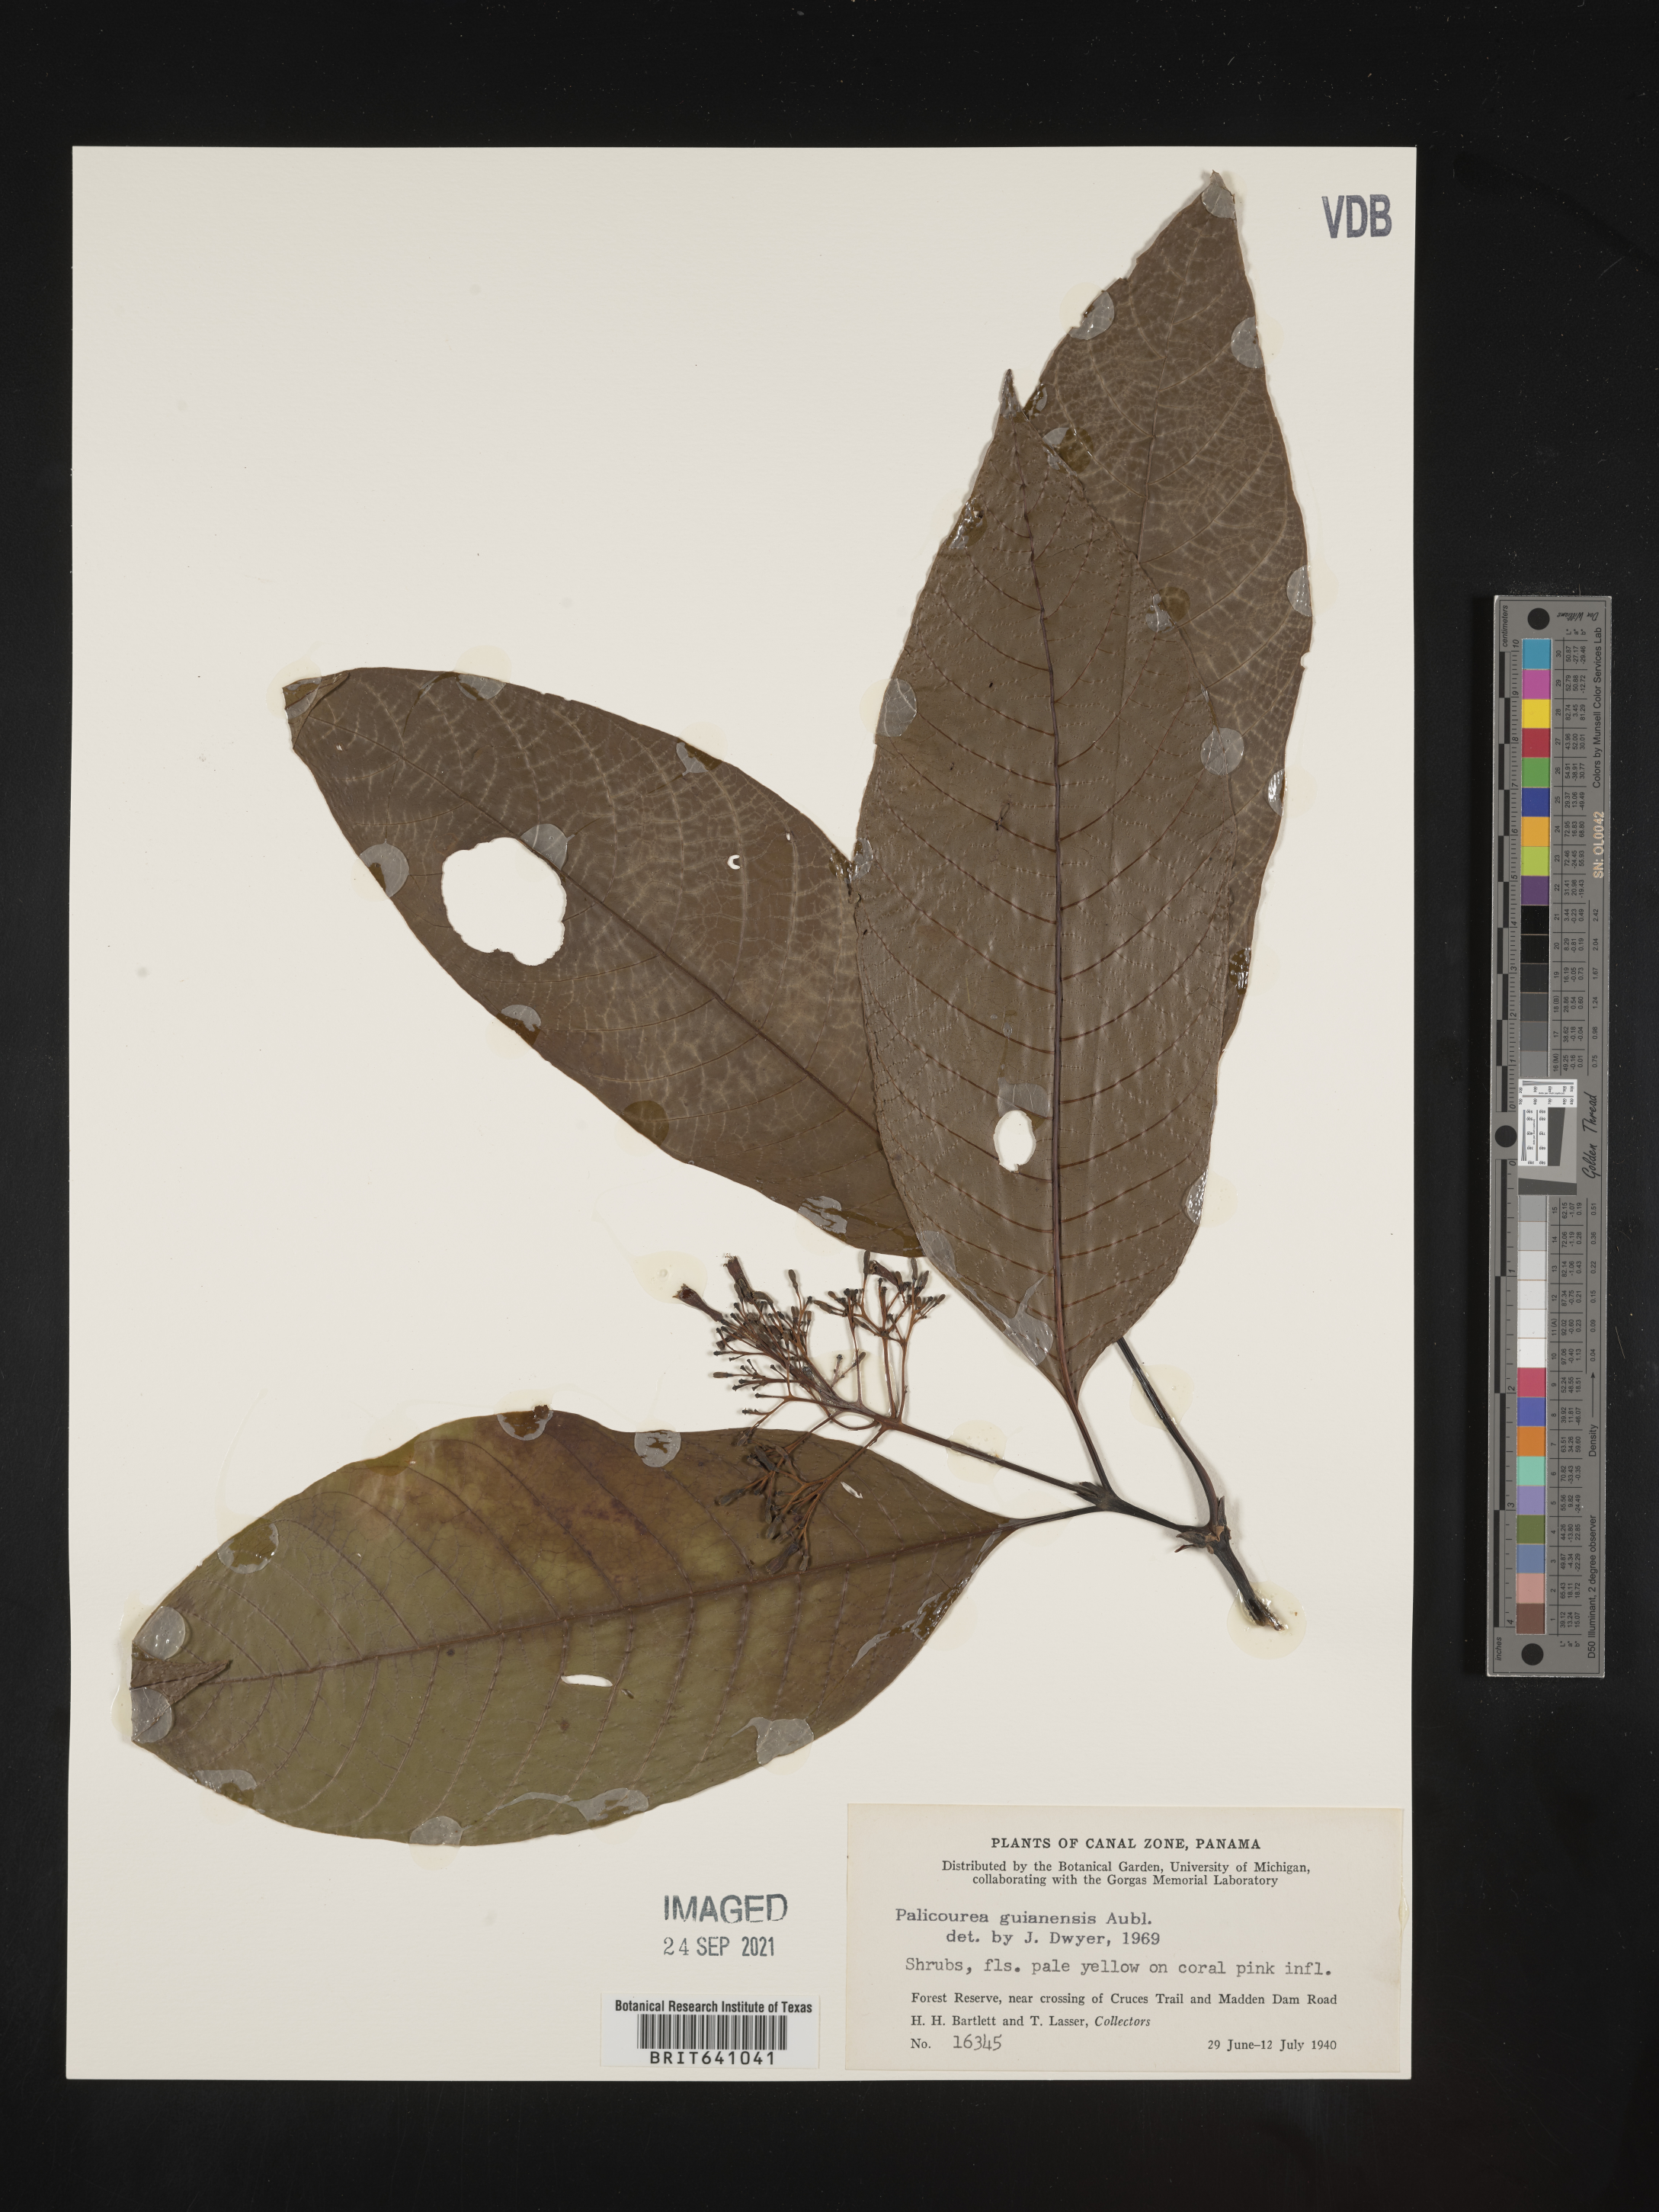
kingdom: Plantae
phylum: Tracheophyta
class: Magnoliopsida
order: Gentianales
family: Rubiaceae
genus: Palicourea
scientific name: Palicourea
